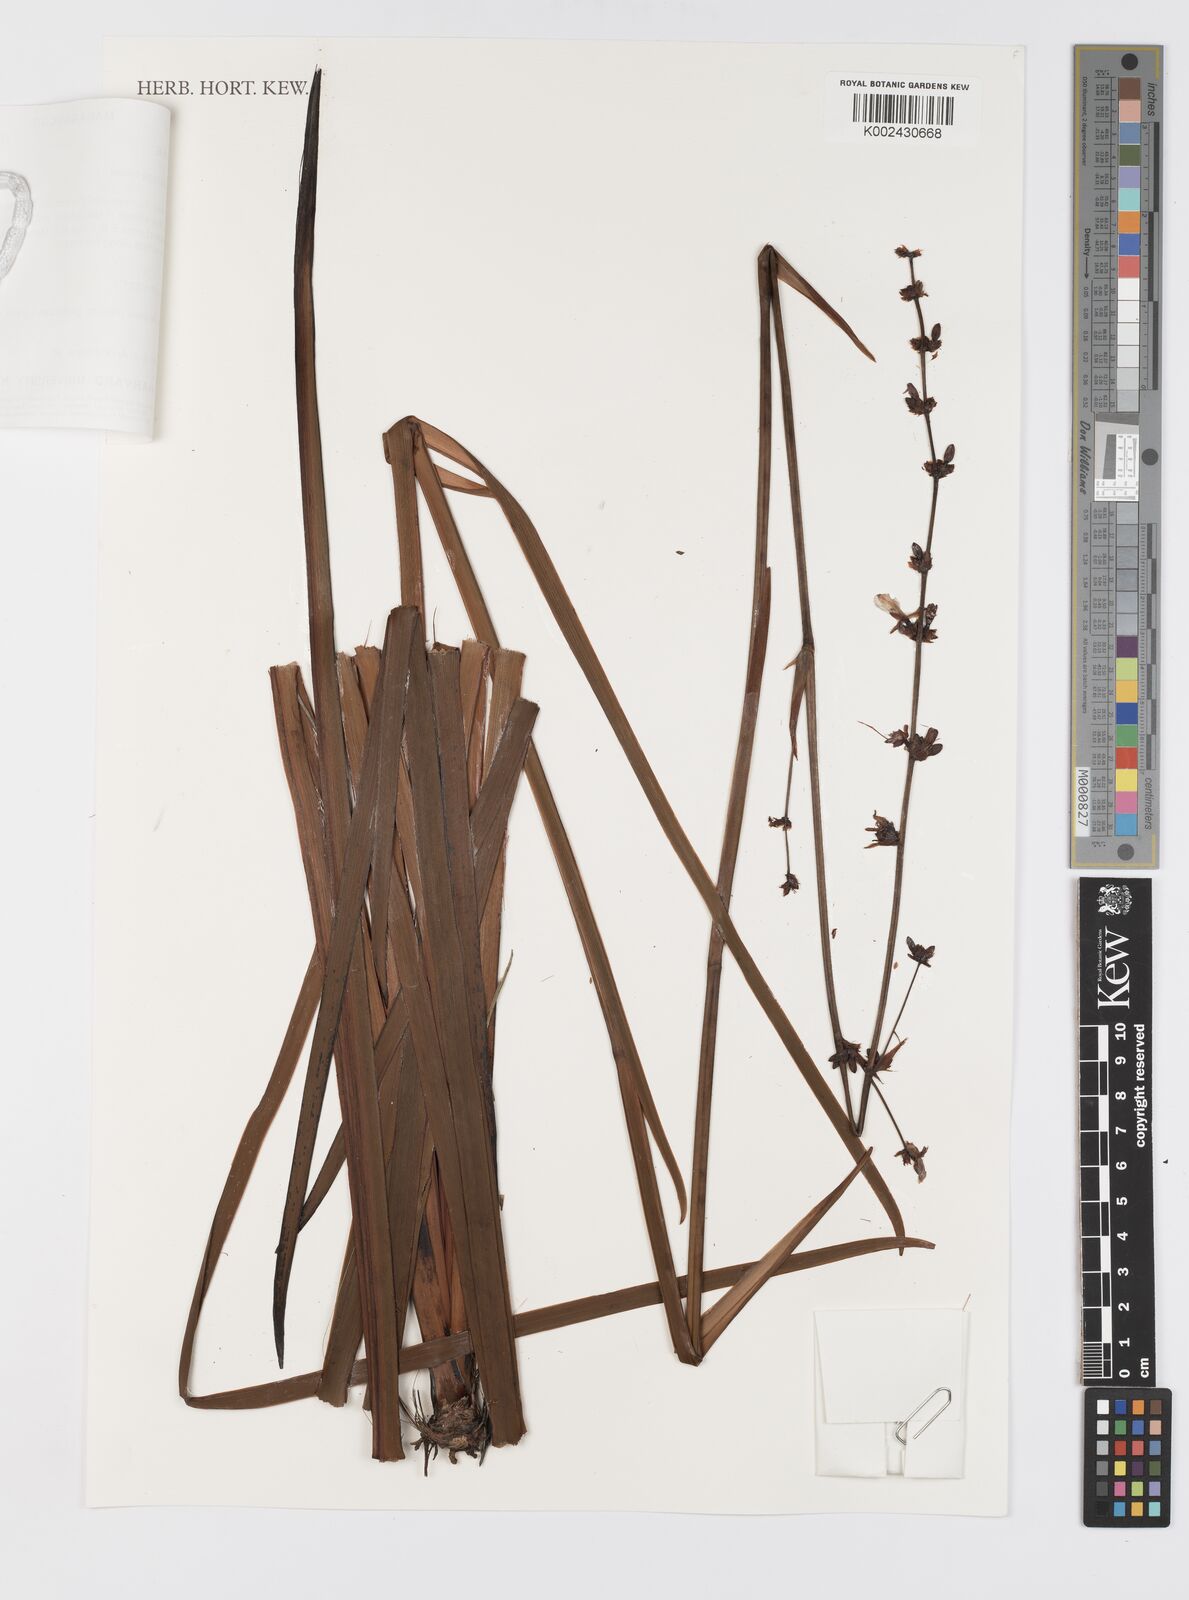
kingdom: Plantae
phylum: Tracheophyta
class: Liliopsida
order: Asparagales
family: Iridaceae
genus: Aristea
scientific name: Aristea kitchingii
